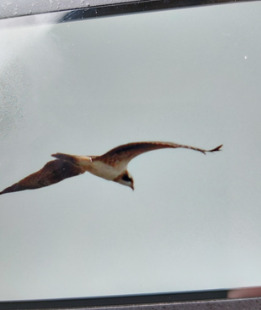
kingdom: Animalia
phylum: Chordata
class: Aves
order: Accipitriformes
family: Pandionidae
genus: Pandion
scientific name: Pandion haliaetus
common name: Fiskeørn
